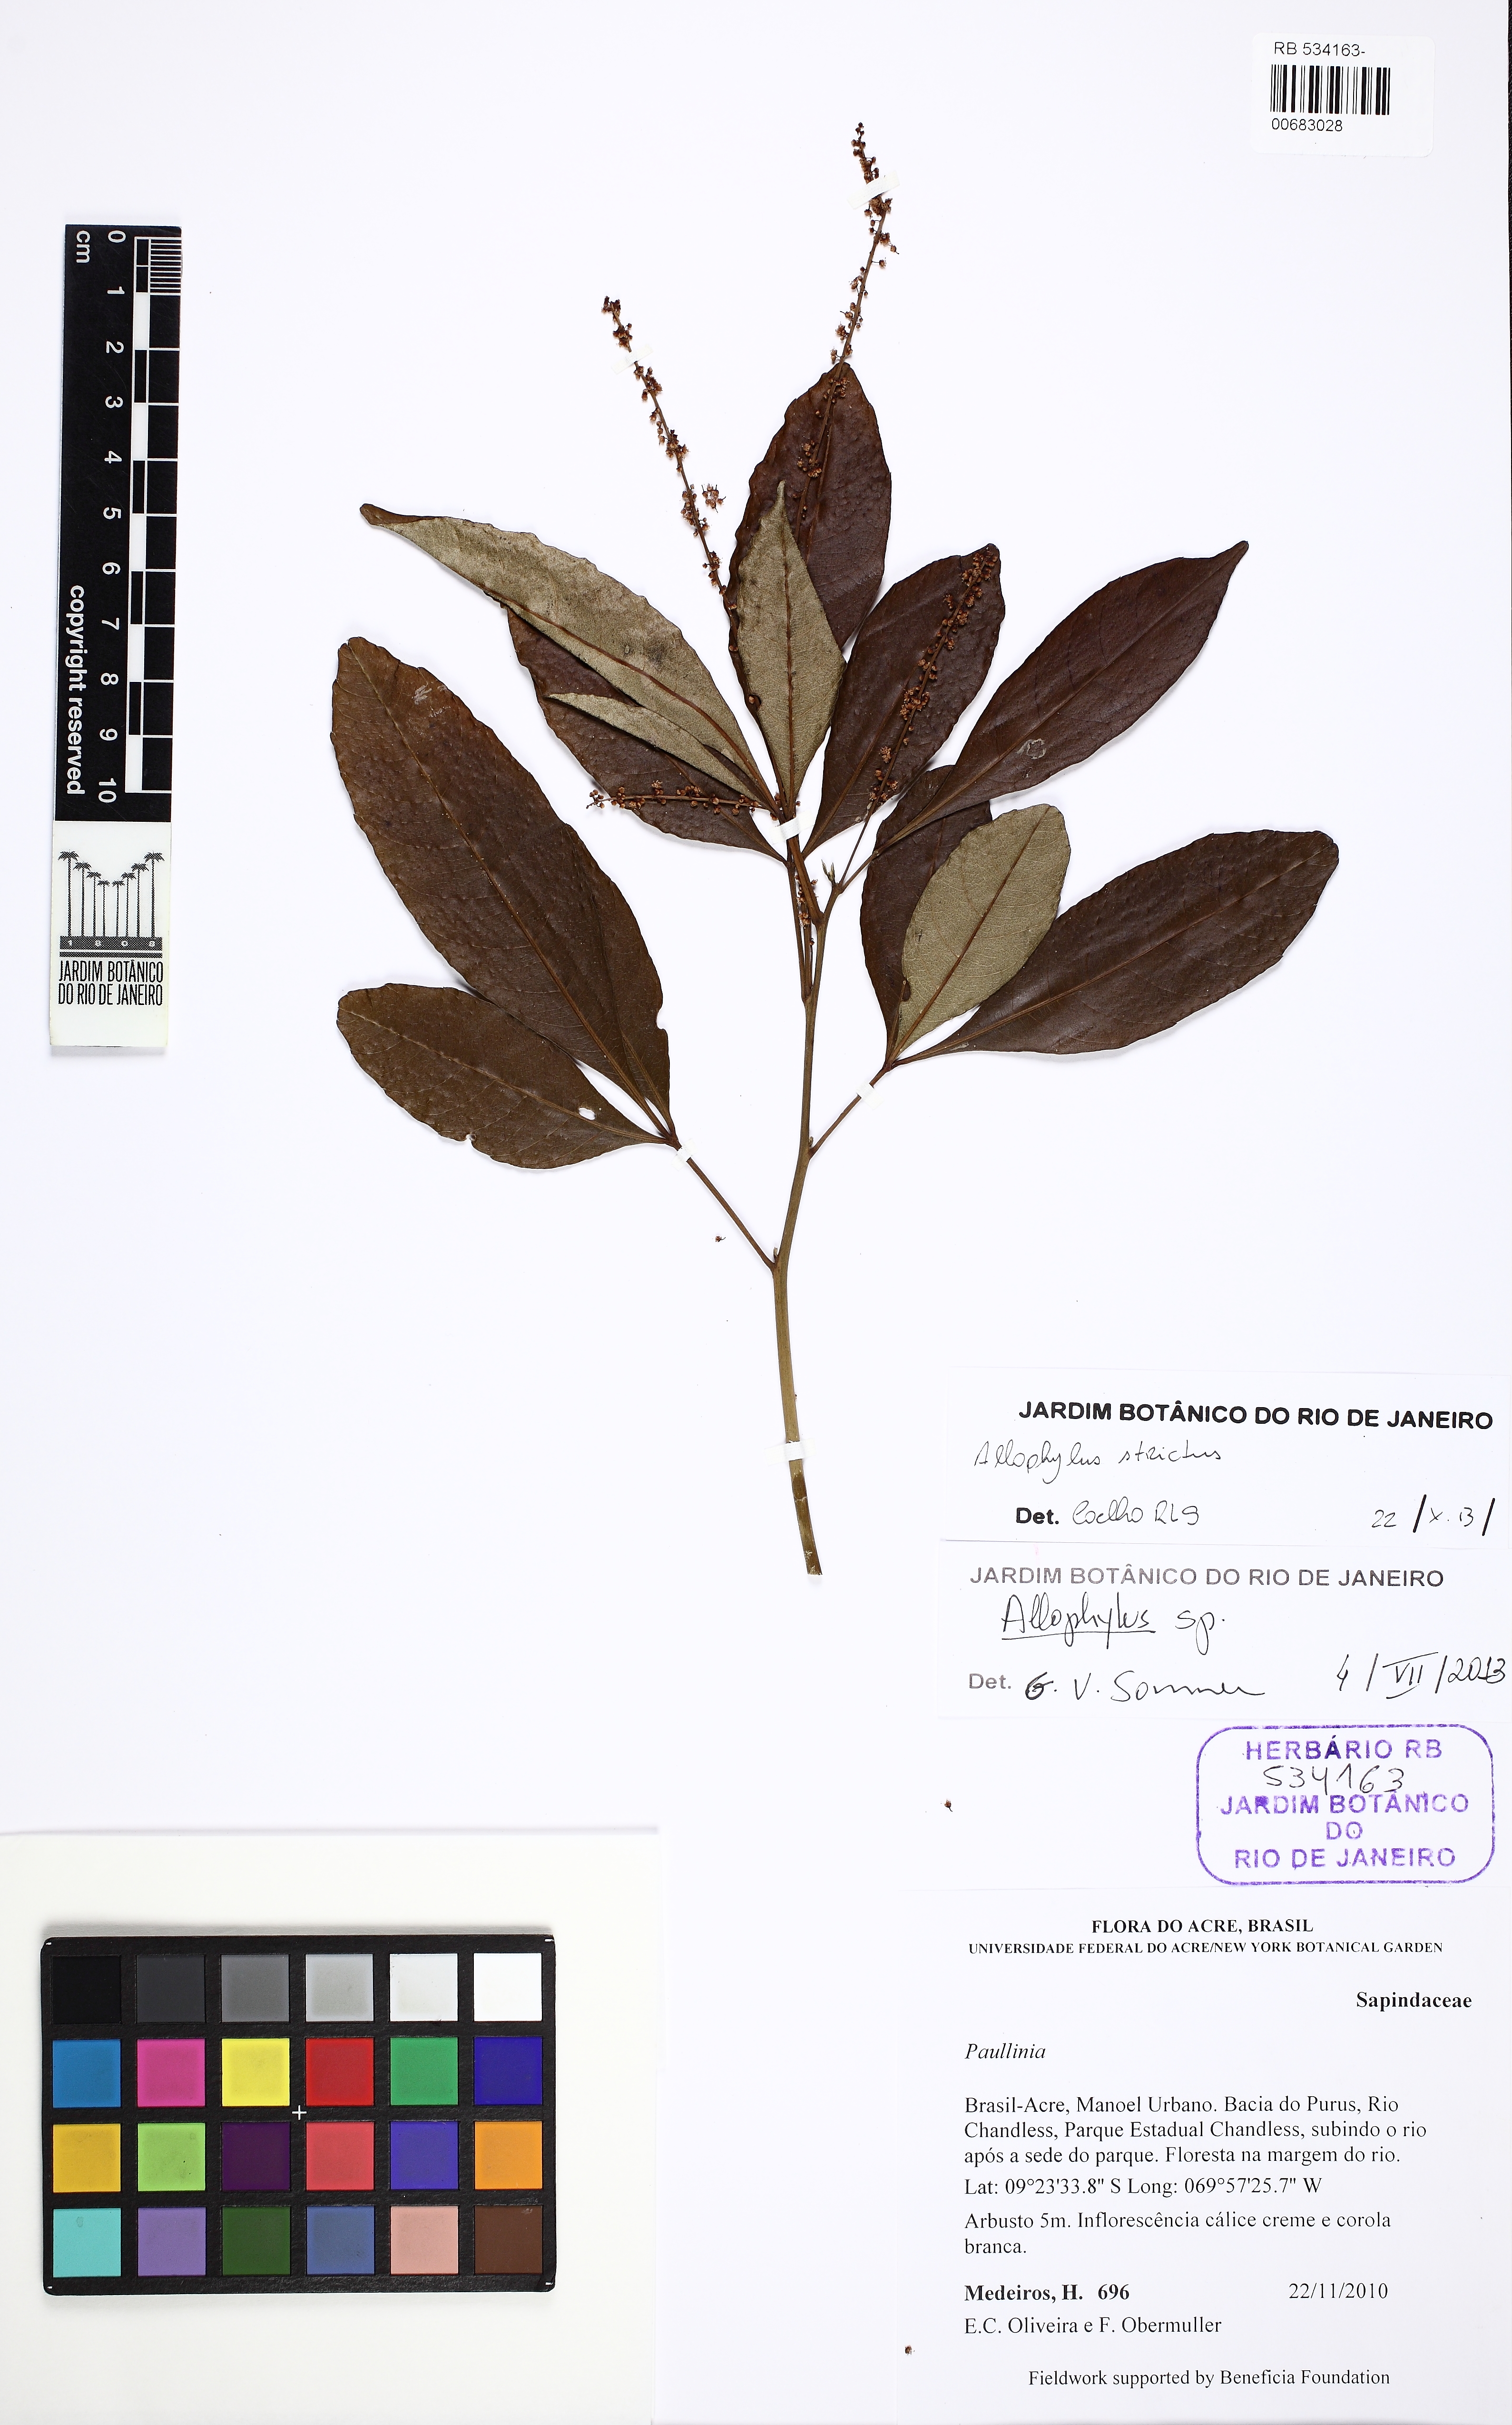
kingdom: Plantae
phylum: Tracheophyta
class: Magnoliopsida
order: Sapindales
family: Sapindaceae
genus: Allophylus
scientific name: Allophylus strictus
